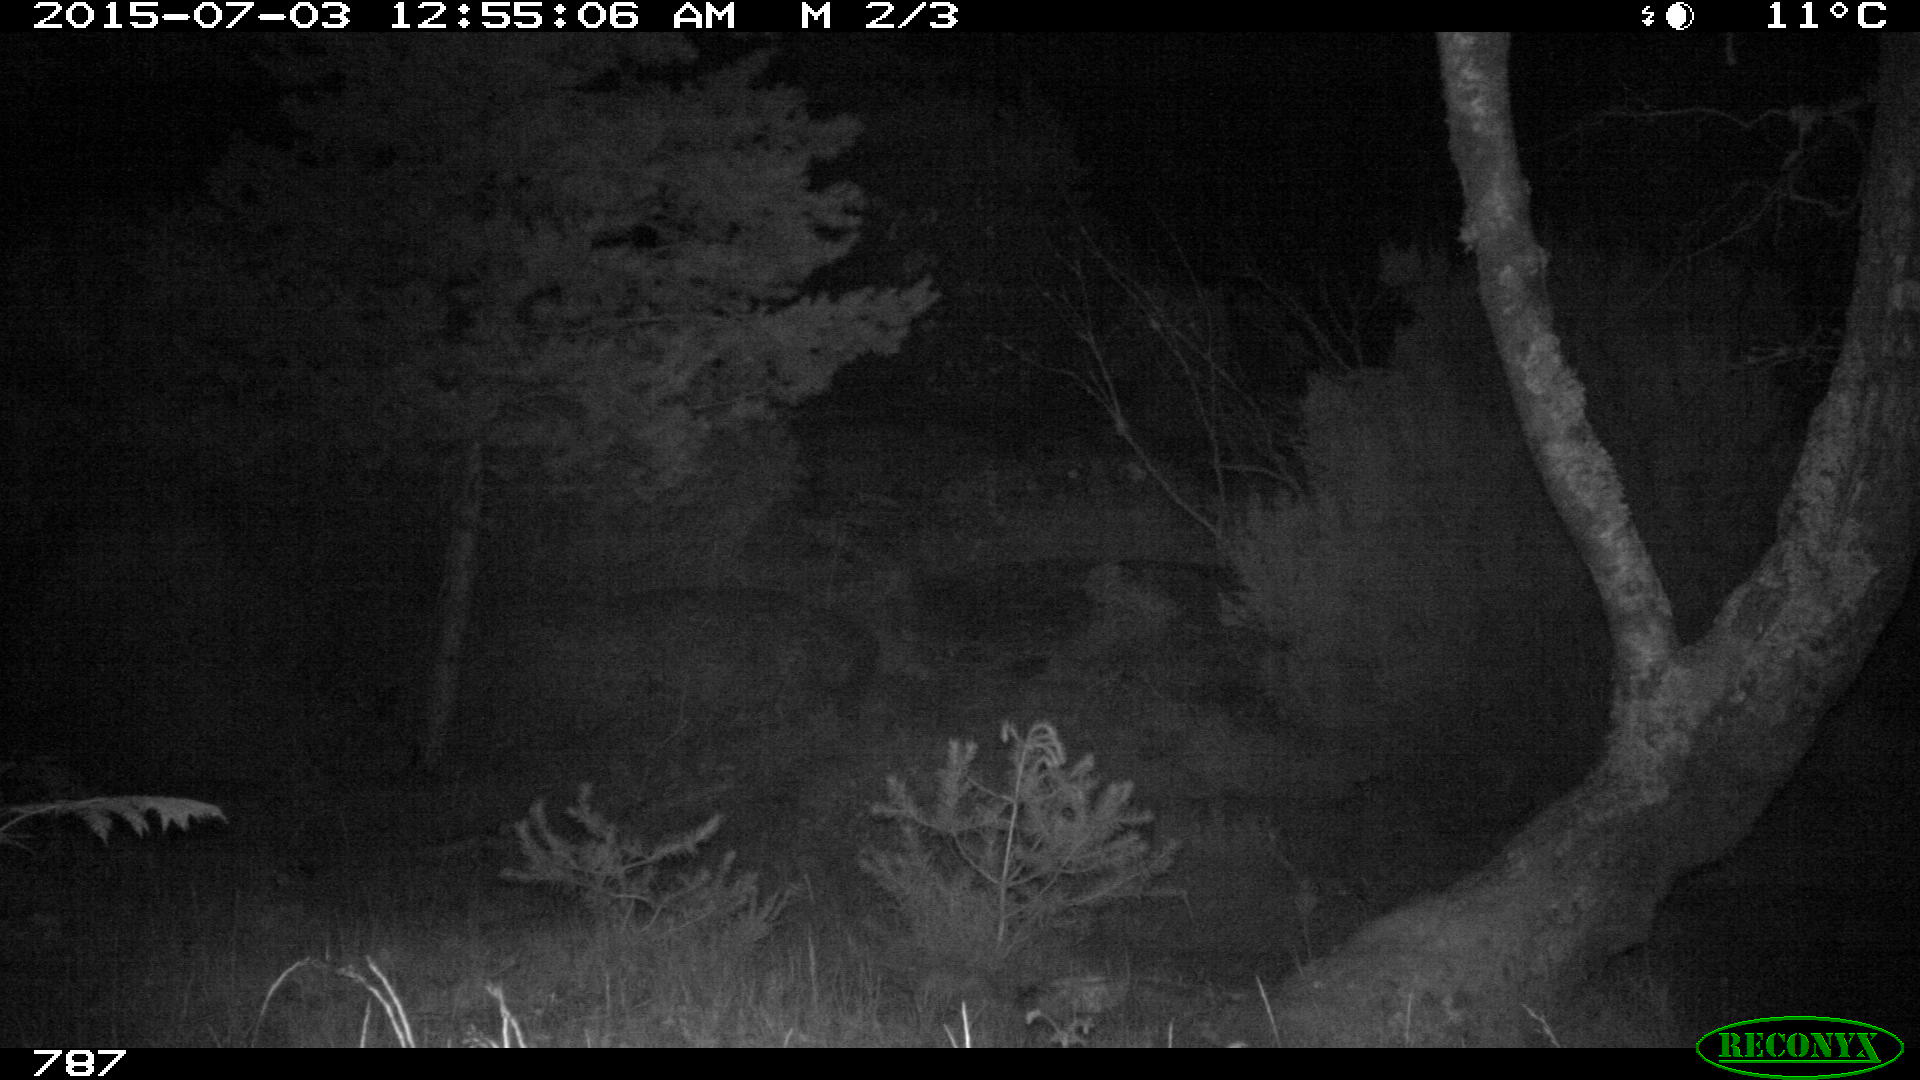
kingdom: Animalia
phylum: Chordata
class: Mammalia
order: Perissodactyla
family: Equidae
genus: Equus
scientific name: Equus caballus
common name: Horse
